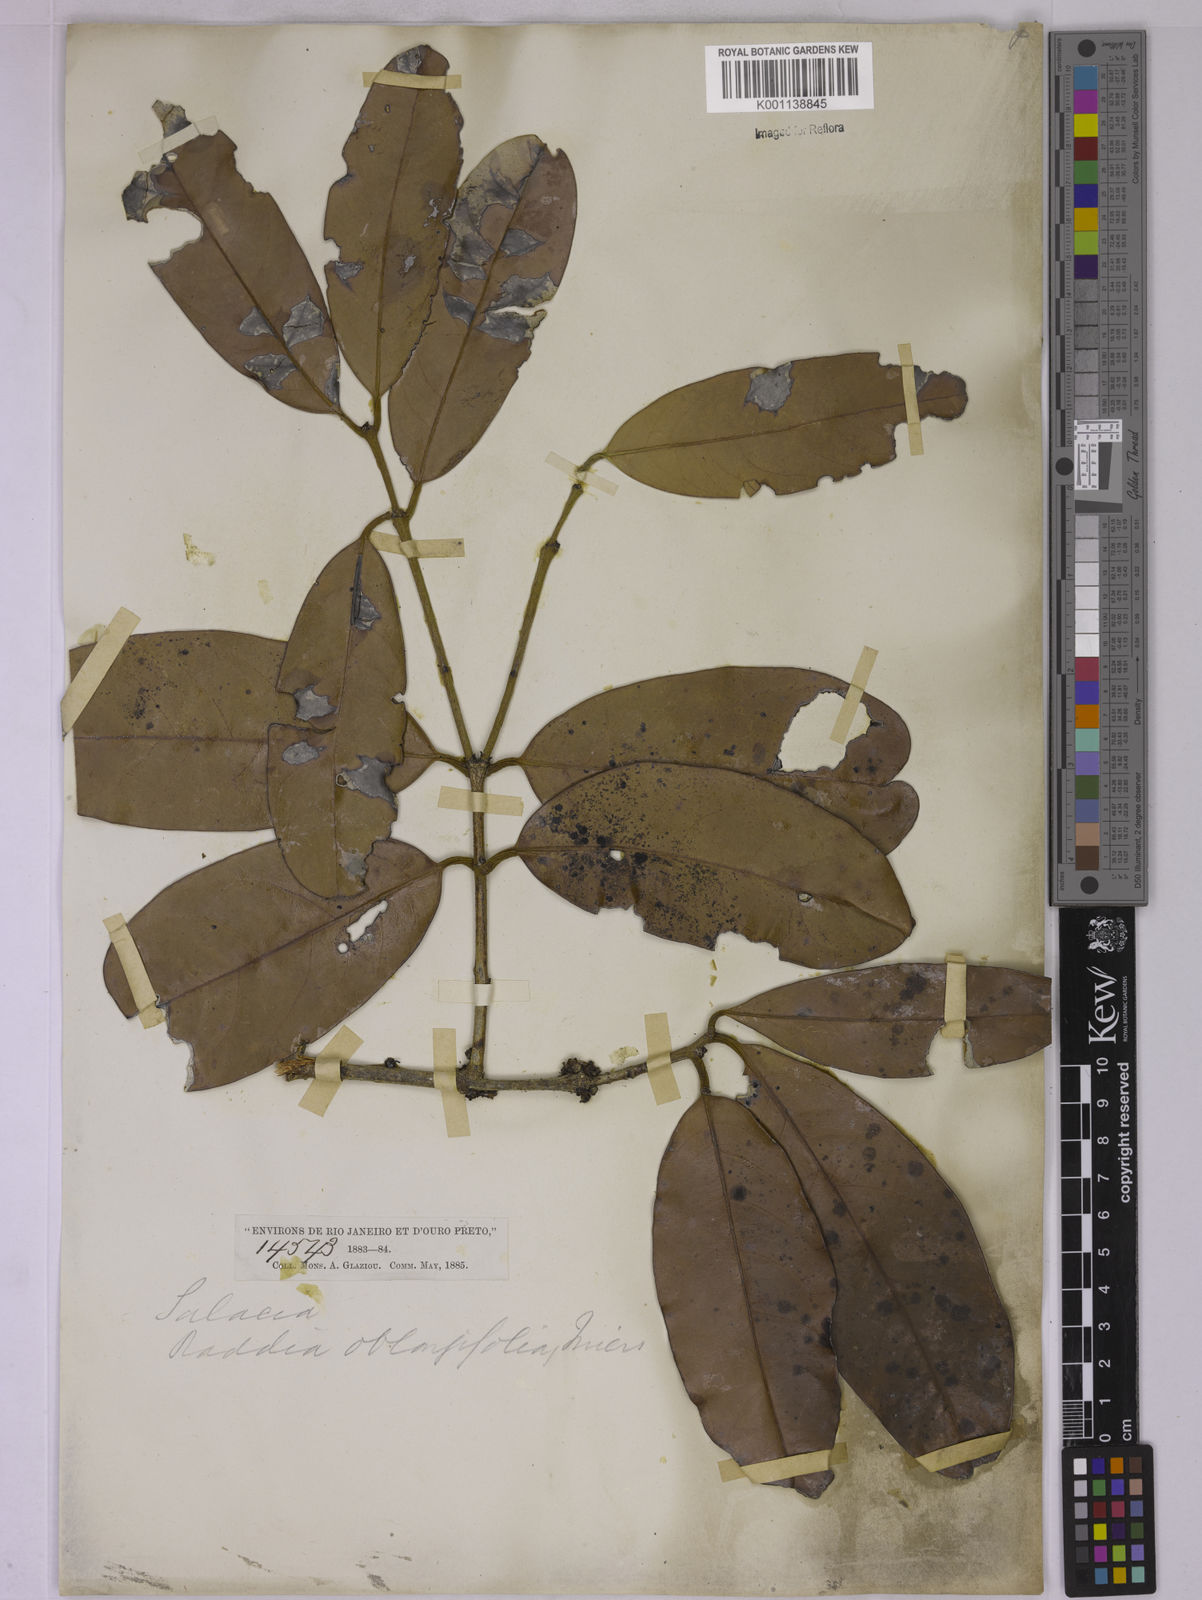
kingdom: Plantae
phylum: Tracheophyta
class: Magnoliopsida
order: Celastrales
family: Celastraceae
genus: Salacia
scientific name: Salacia elliptica
